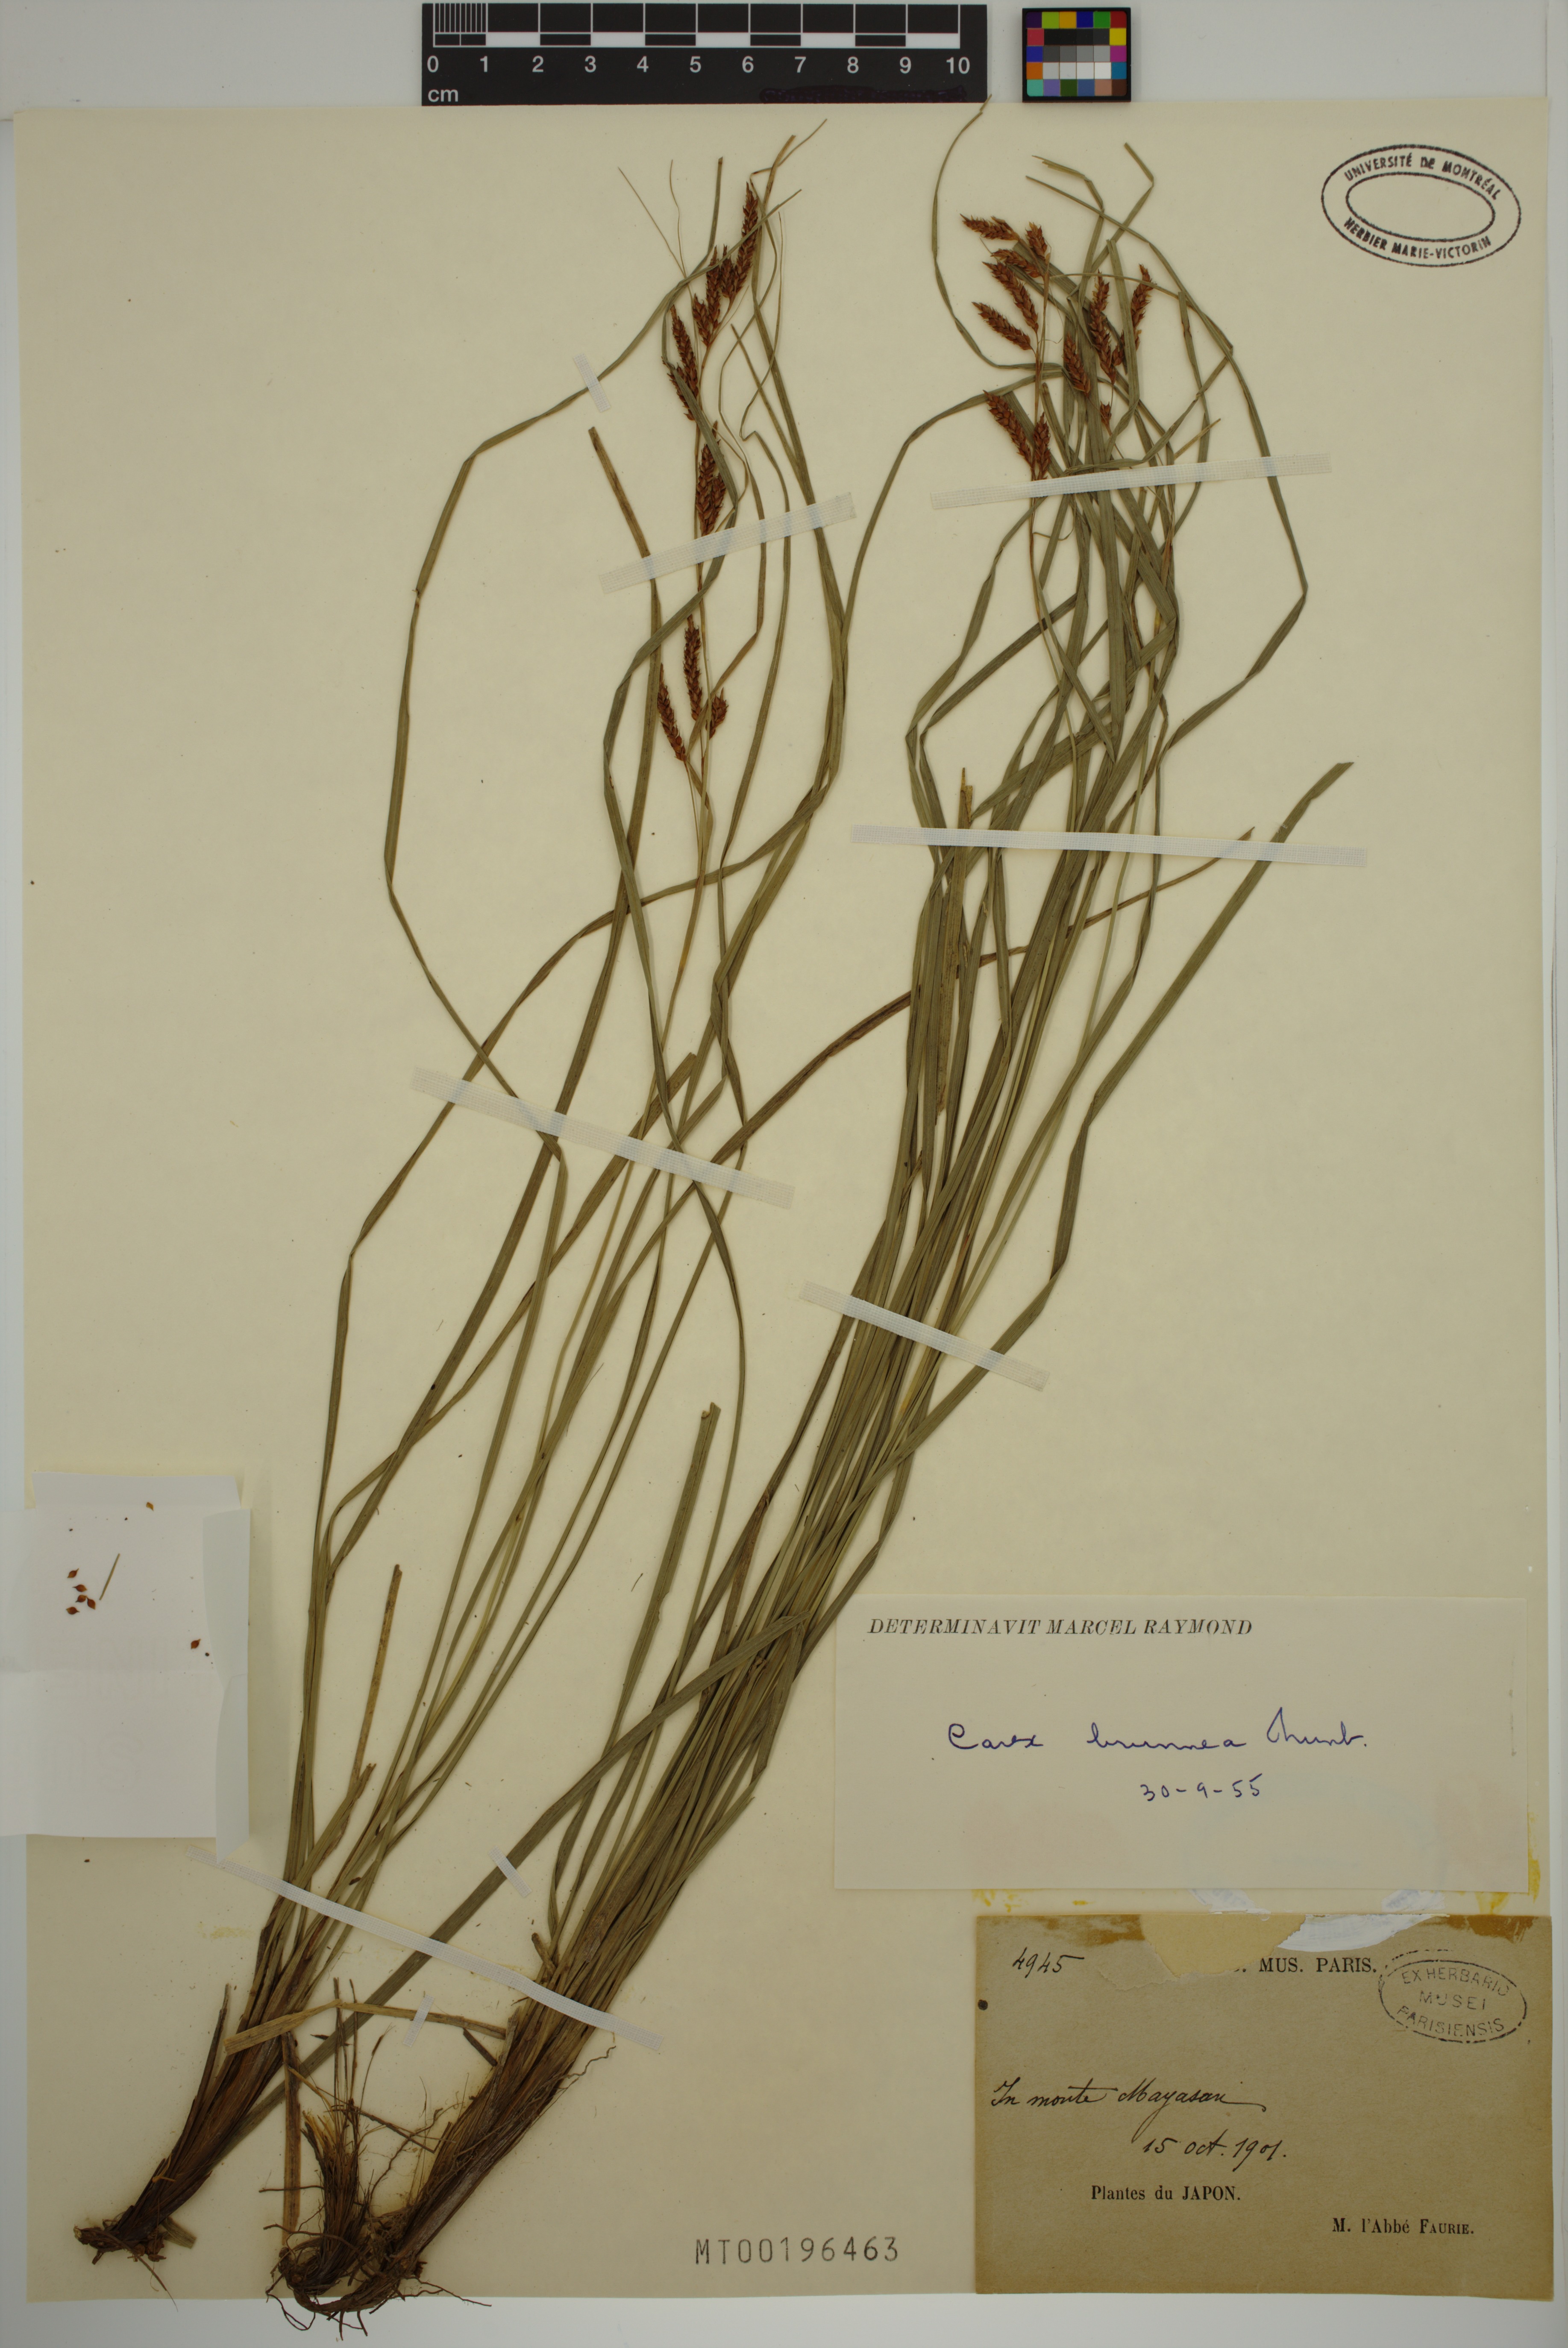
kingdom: Plantae
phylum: Tracheophyta
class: Liliopsida
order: Poales
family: Cyperaceae
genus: Carex
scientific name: Carex brunnea
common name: Greater brown sedge
